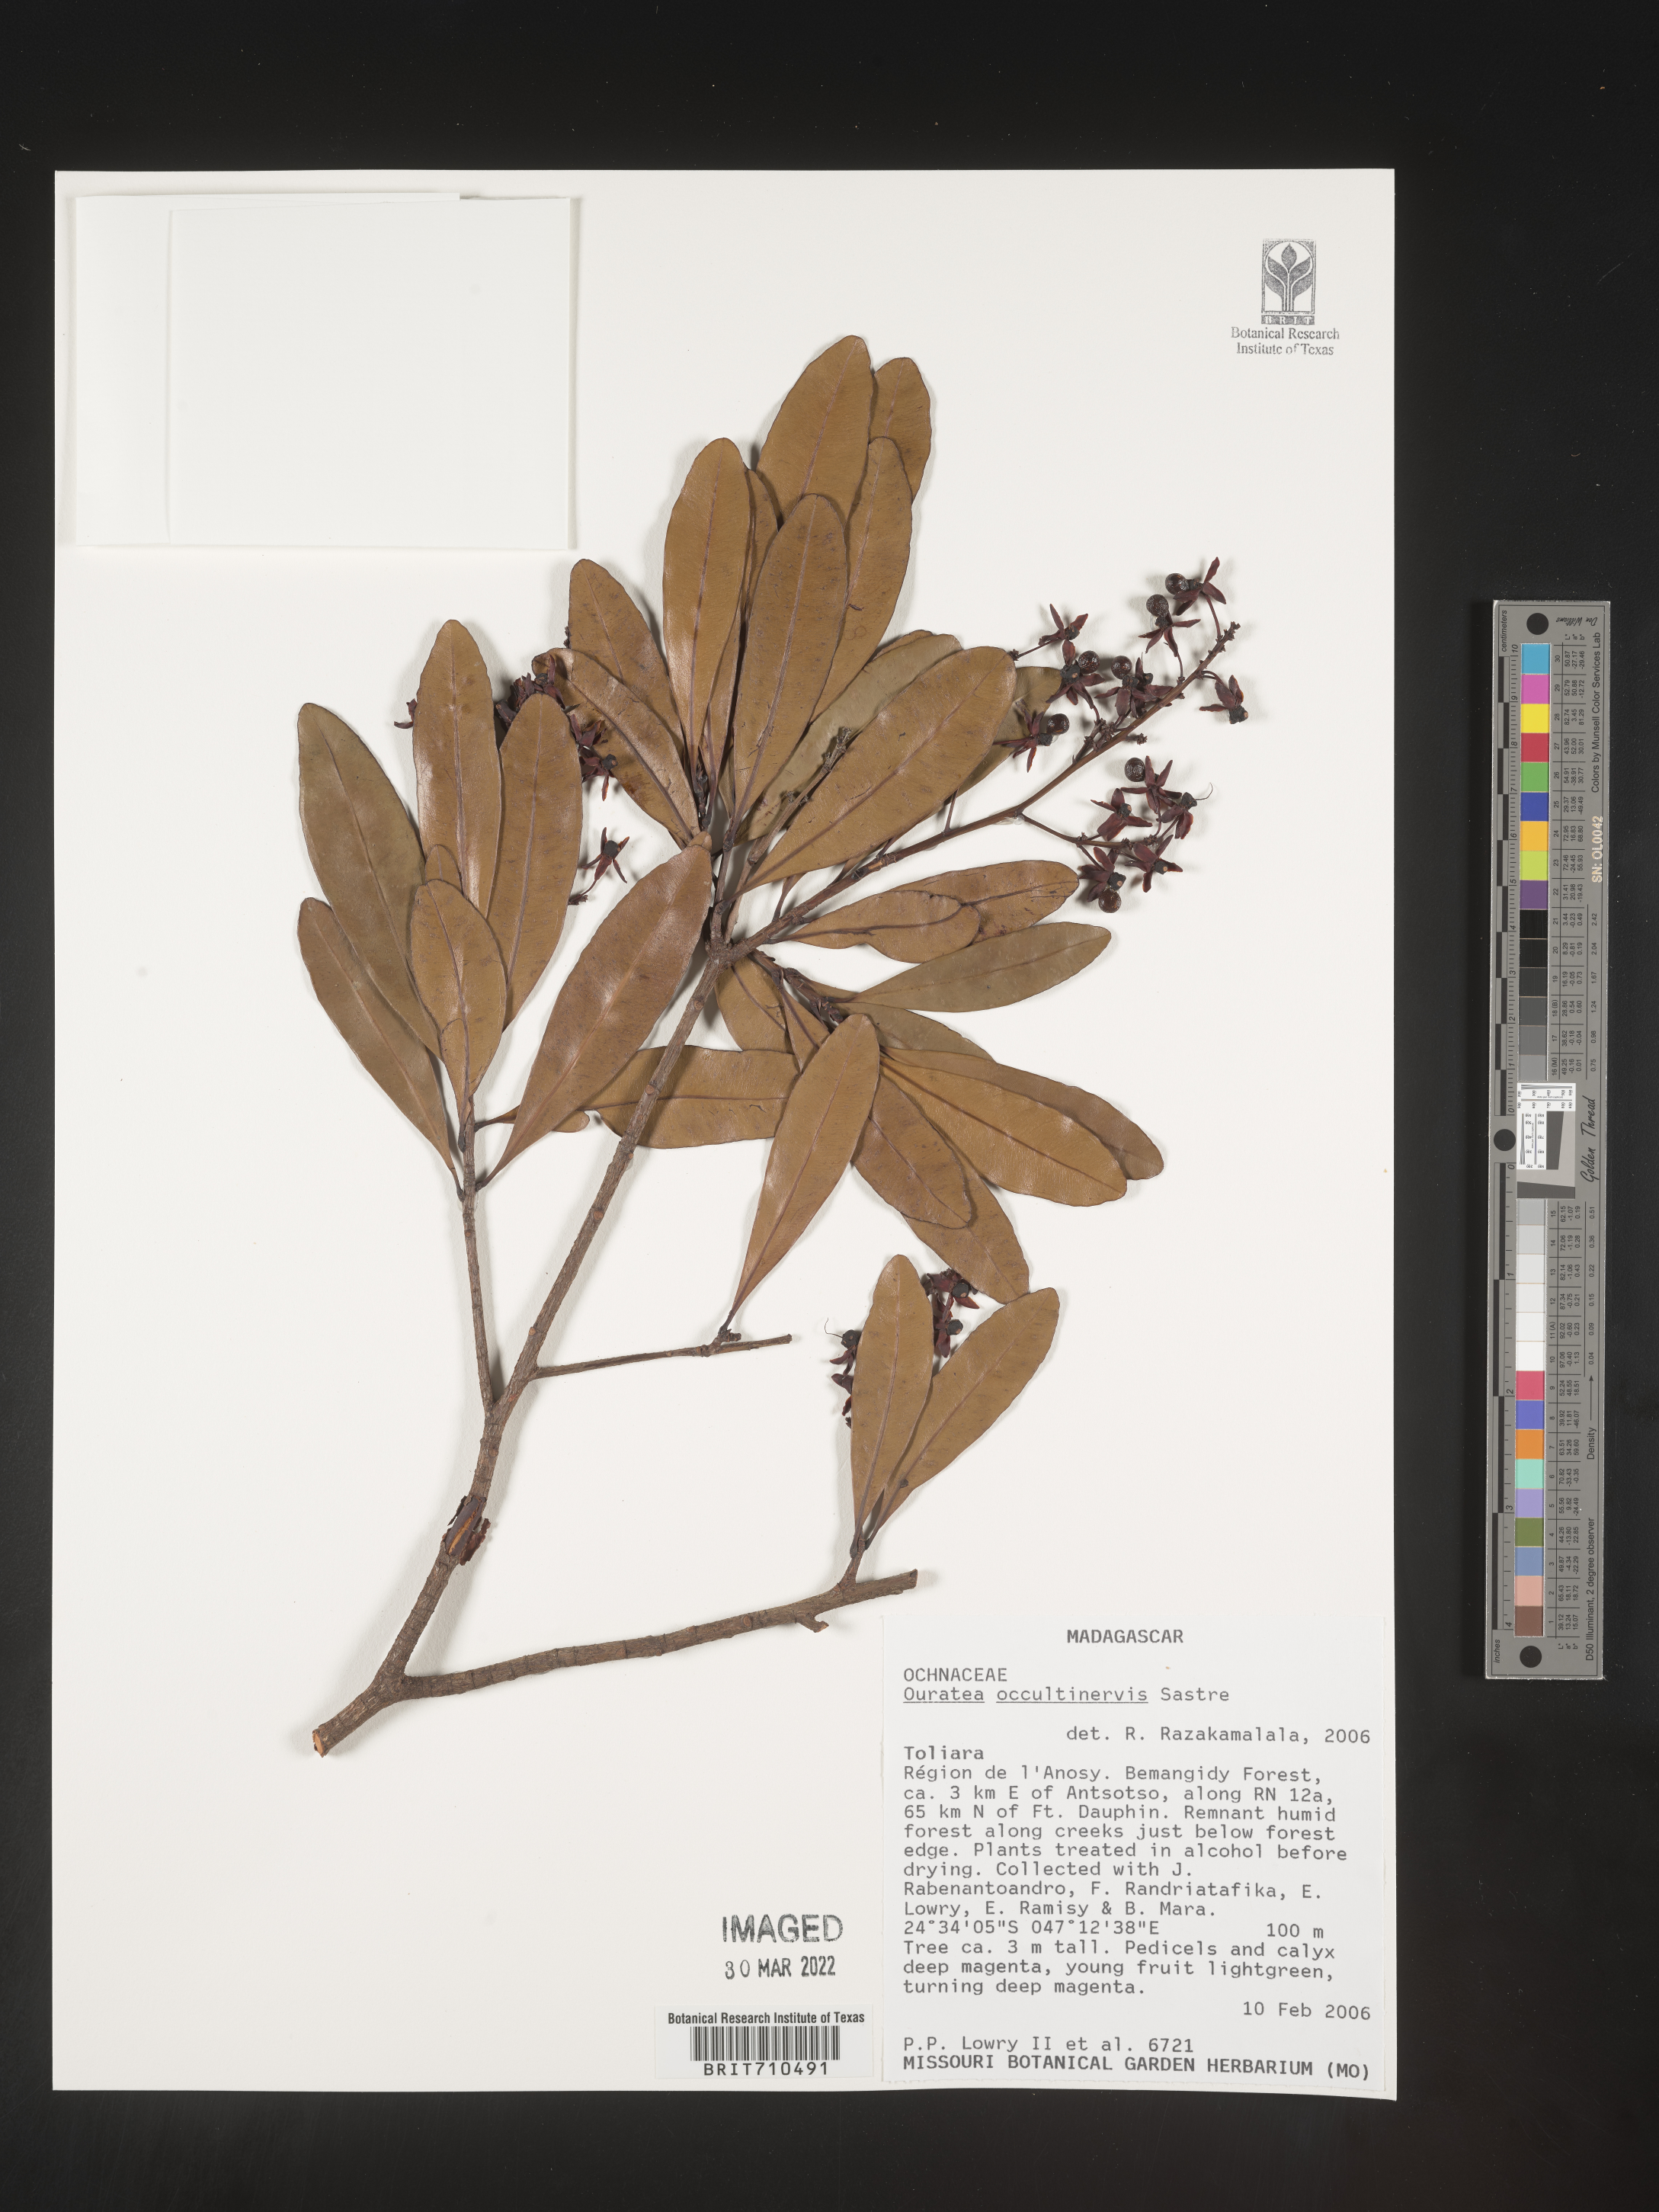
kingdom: Plantae
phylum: Tracheophyta
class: Magnoliopsida
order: Malpighiales
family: Ochnaceae
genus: Ouratea
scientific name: Ouratea
